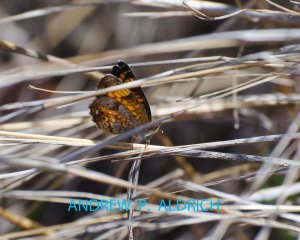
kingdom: Animalia
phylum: Arthropoda
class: Insecta
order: Lepidoptera
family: Nymphalidae
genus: Phyciodes
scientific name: Phyciodes tharos
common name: Pearl Crescent
